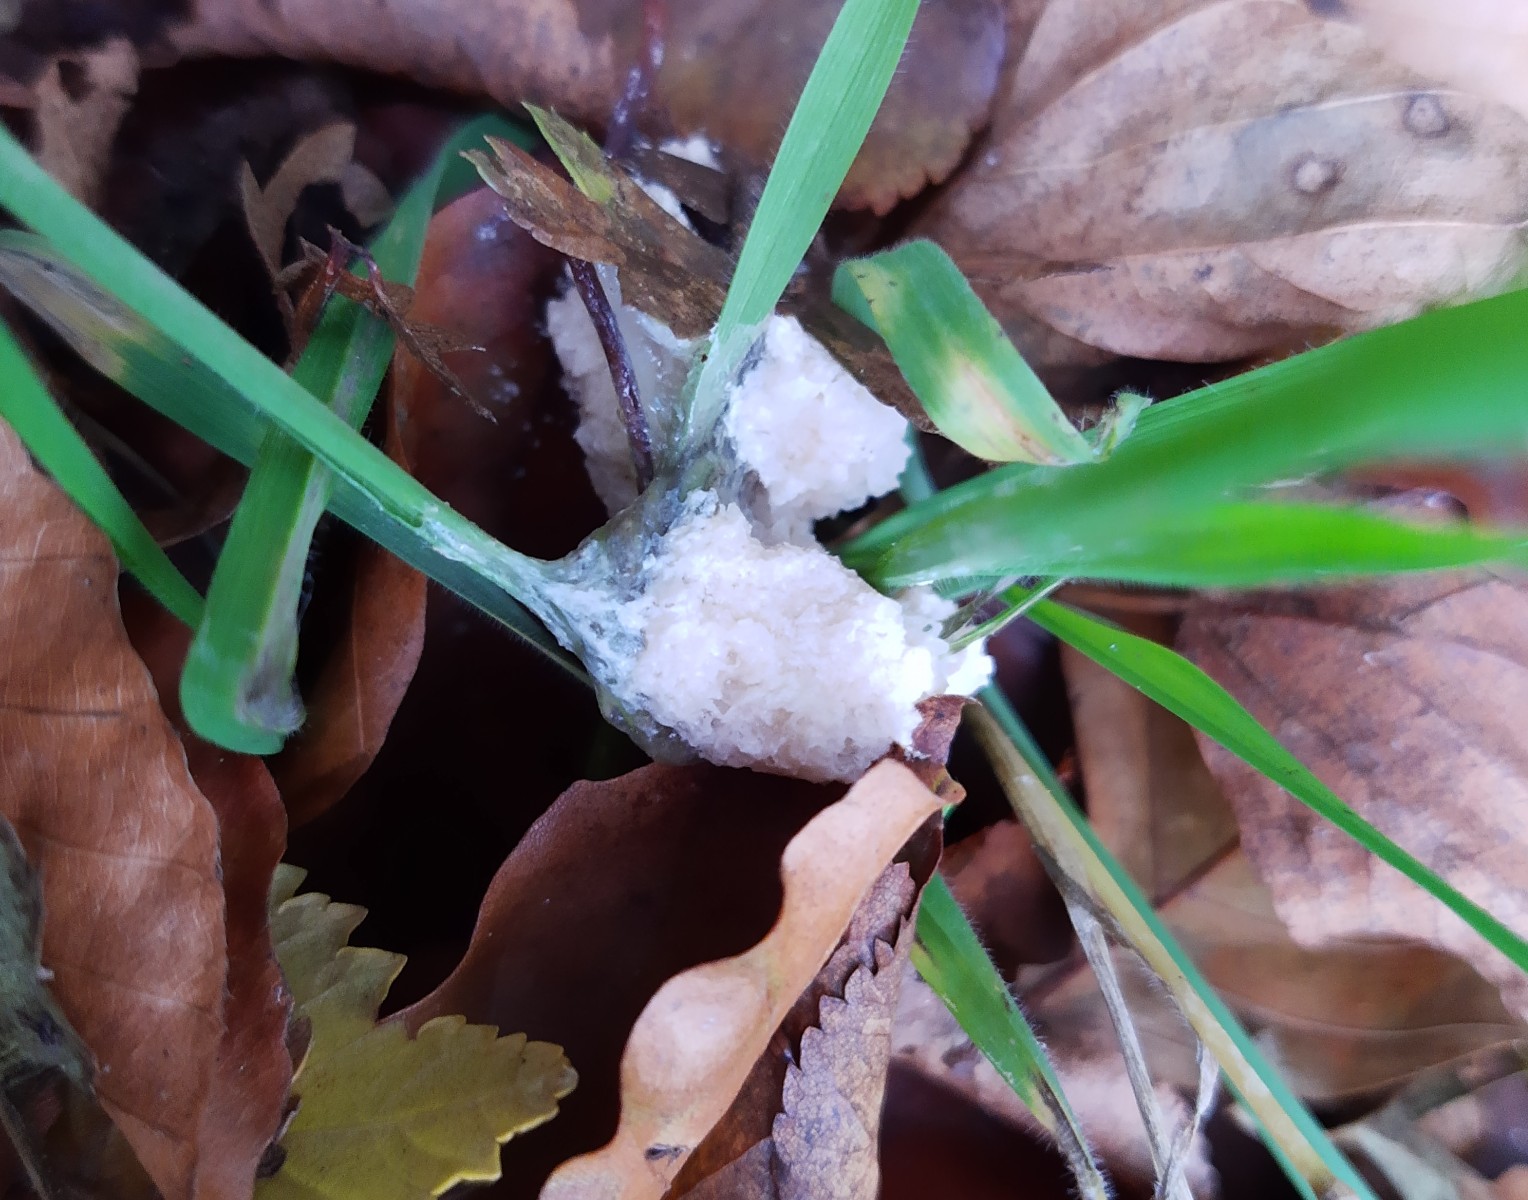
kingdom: Protozoa
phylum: Mycetozoa
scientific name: Mycetozoa
